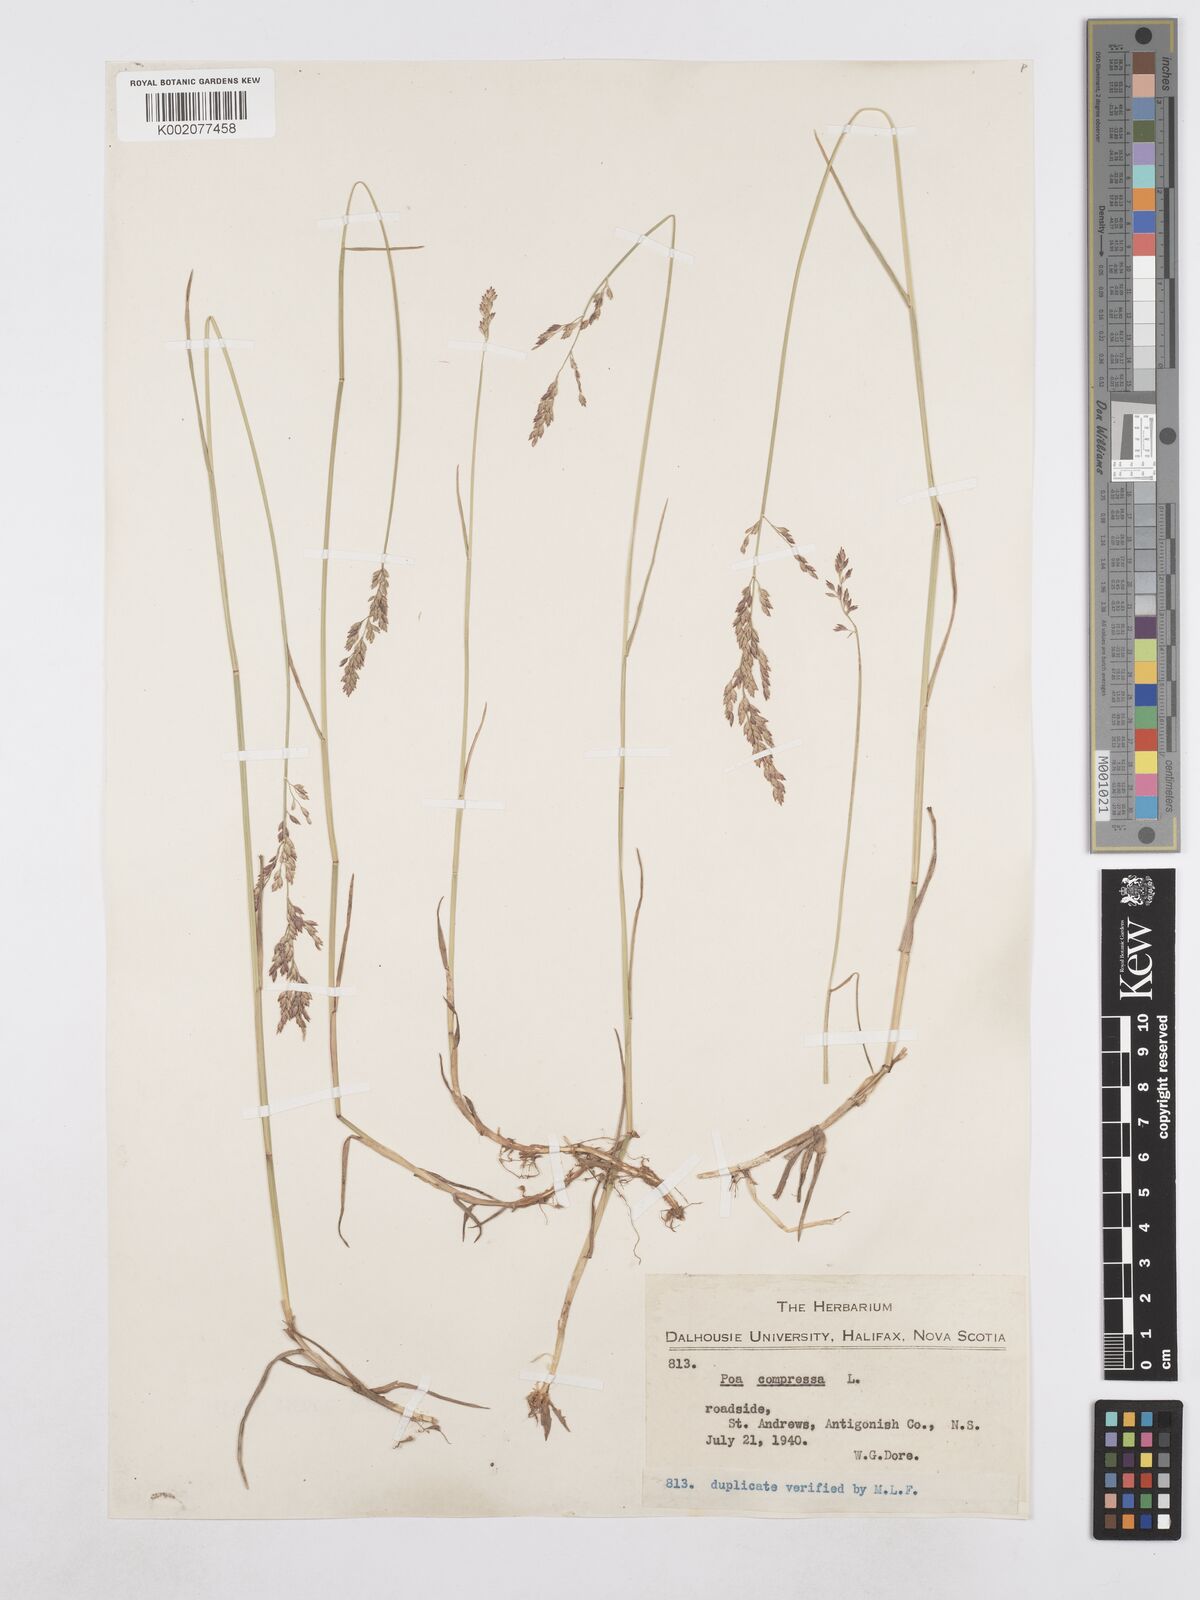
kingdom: Plantae
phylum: Tracheophyta
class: Liliopsida
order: Poales
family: Poaceae
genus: Poa
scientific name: Poa compressa
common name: Canada bluegrass
